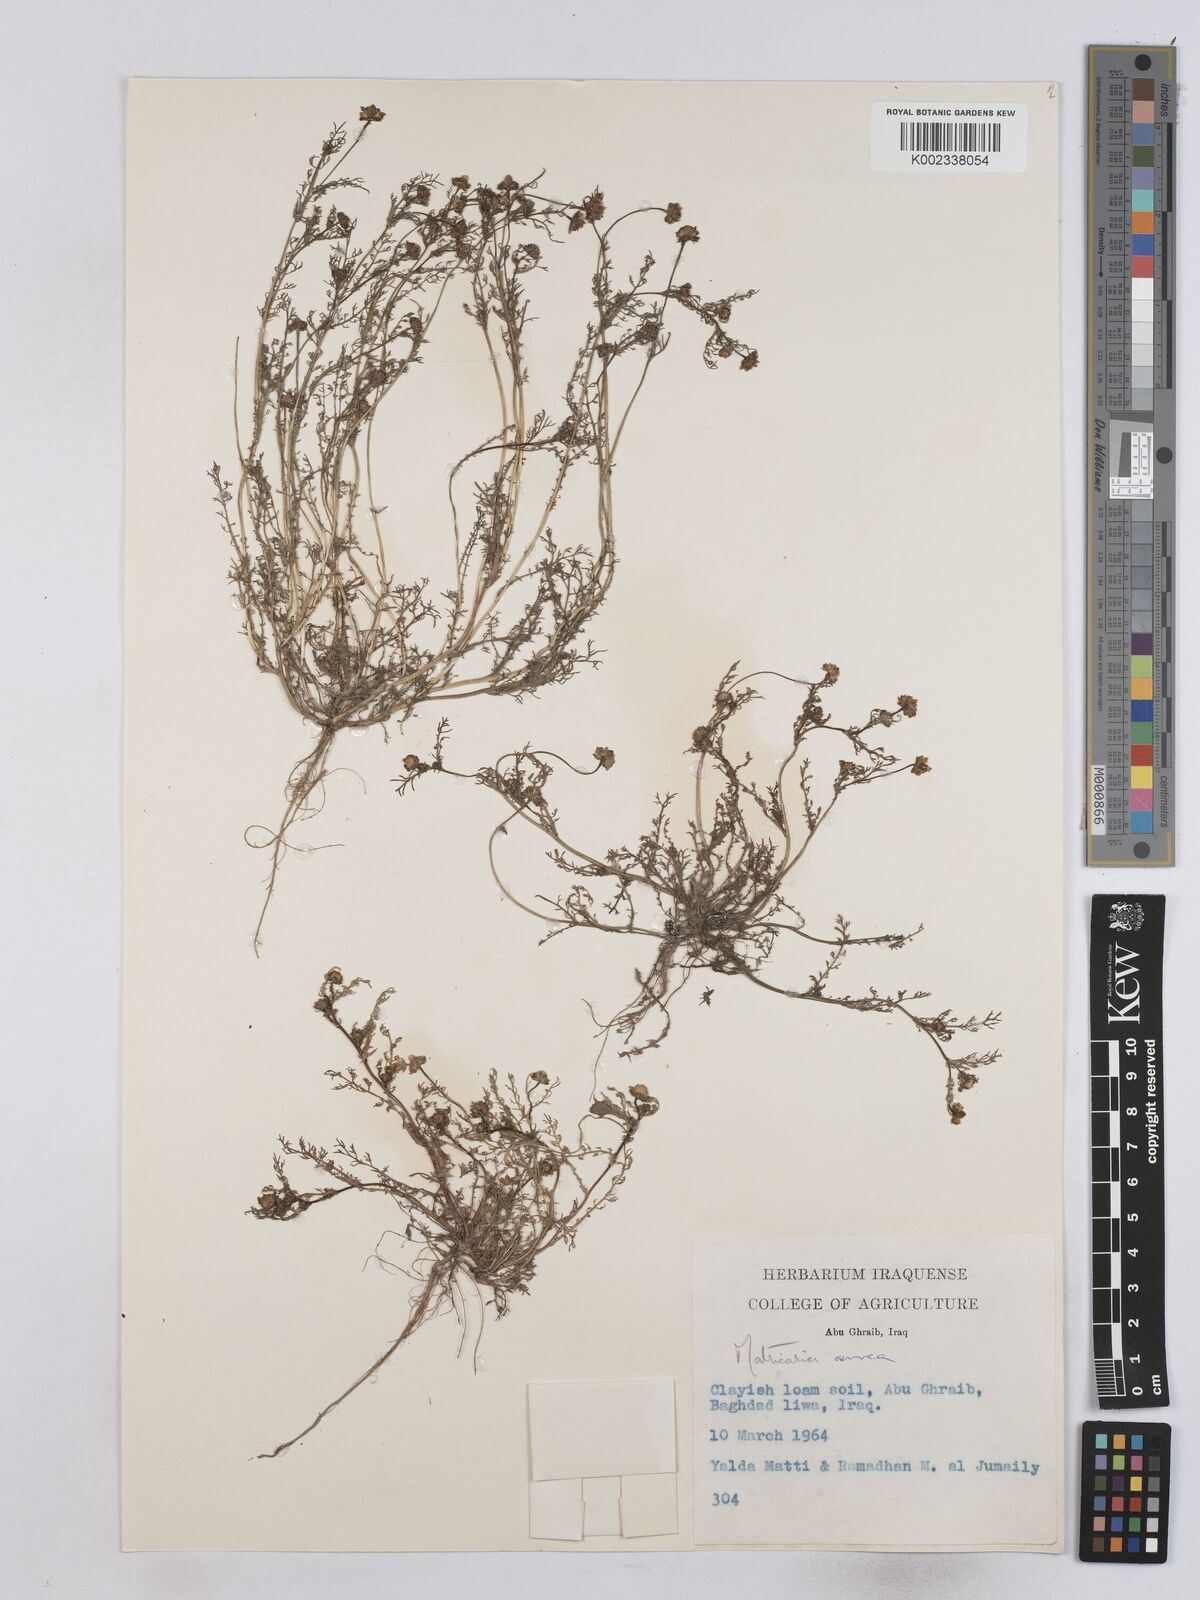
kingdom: Plantae
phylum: Tracheophyta
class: Magnoliopsida
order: Asterales
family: Asteraceae
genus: Matricaria
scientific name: Matricaria aurea
